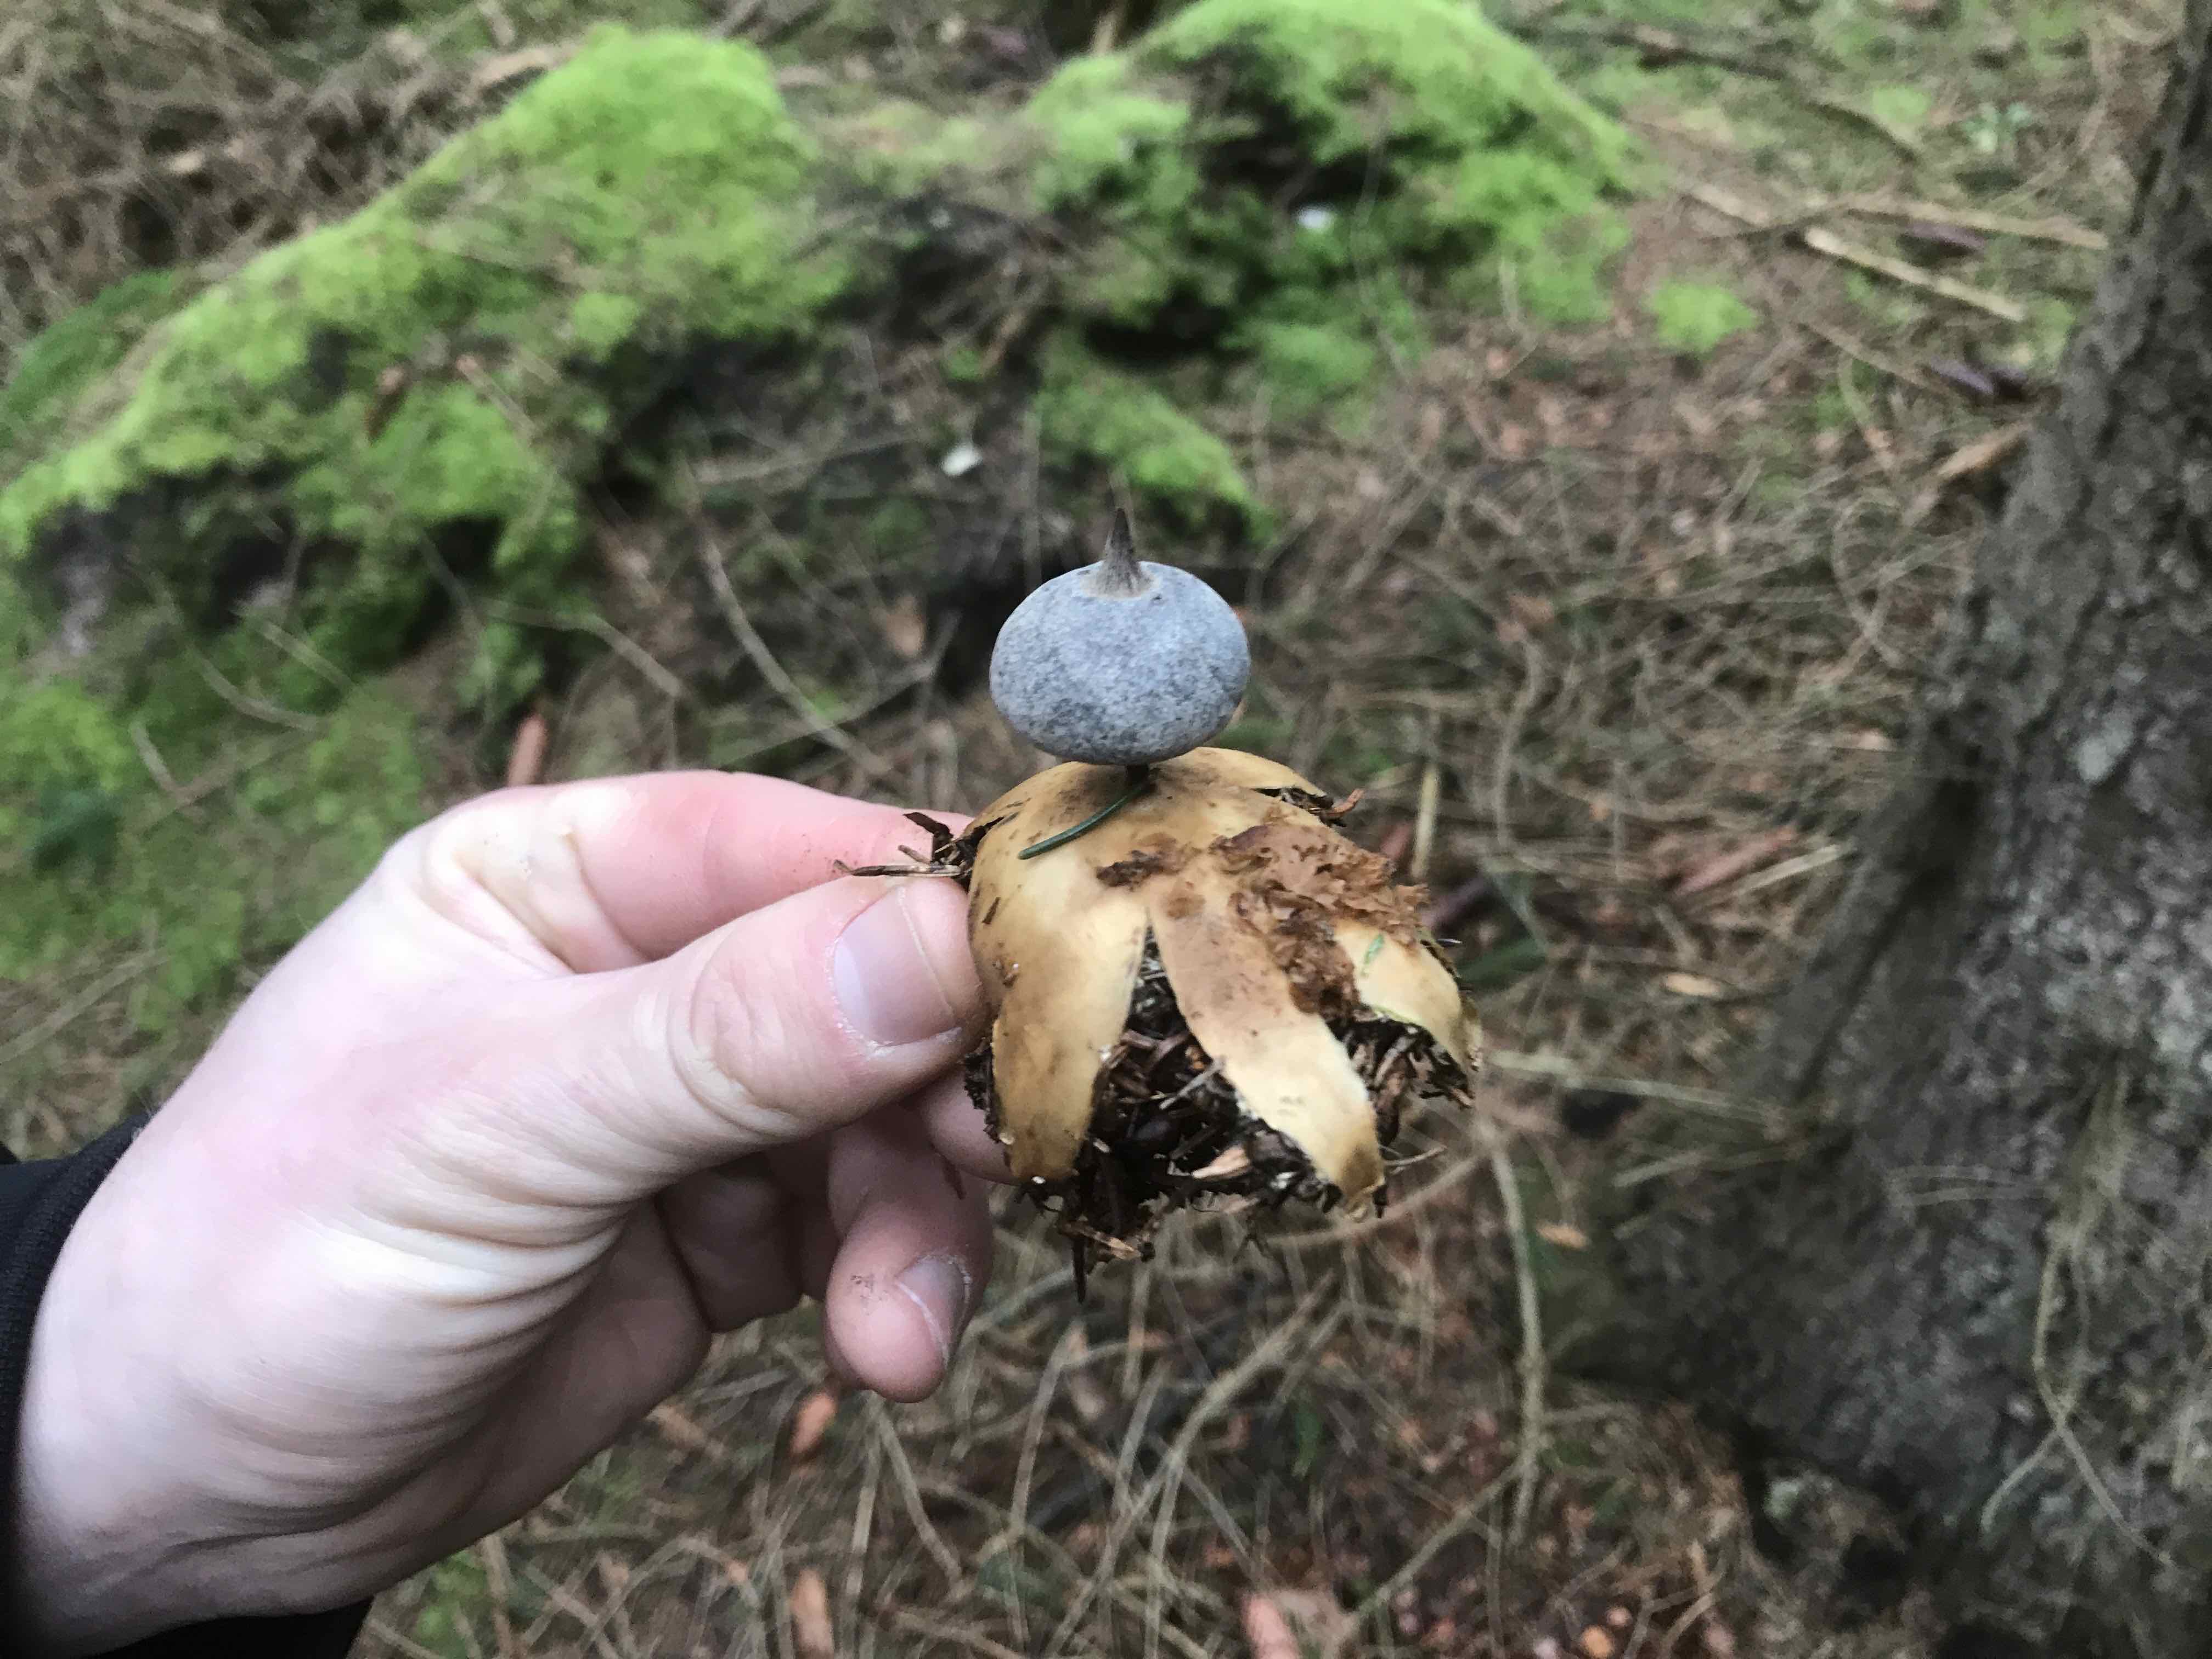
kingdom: Fungi
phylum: Basidiomycota
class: Agaricomycetes
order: Geastrales
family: Geastraceae
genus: Geastrum
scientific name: Geastrum
